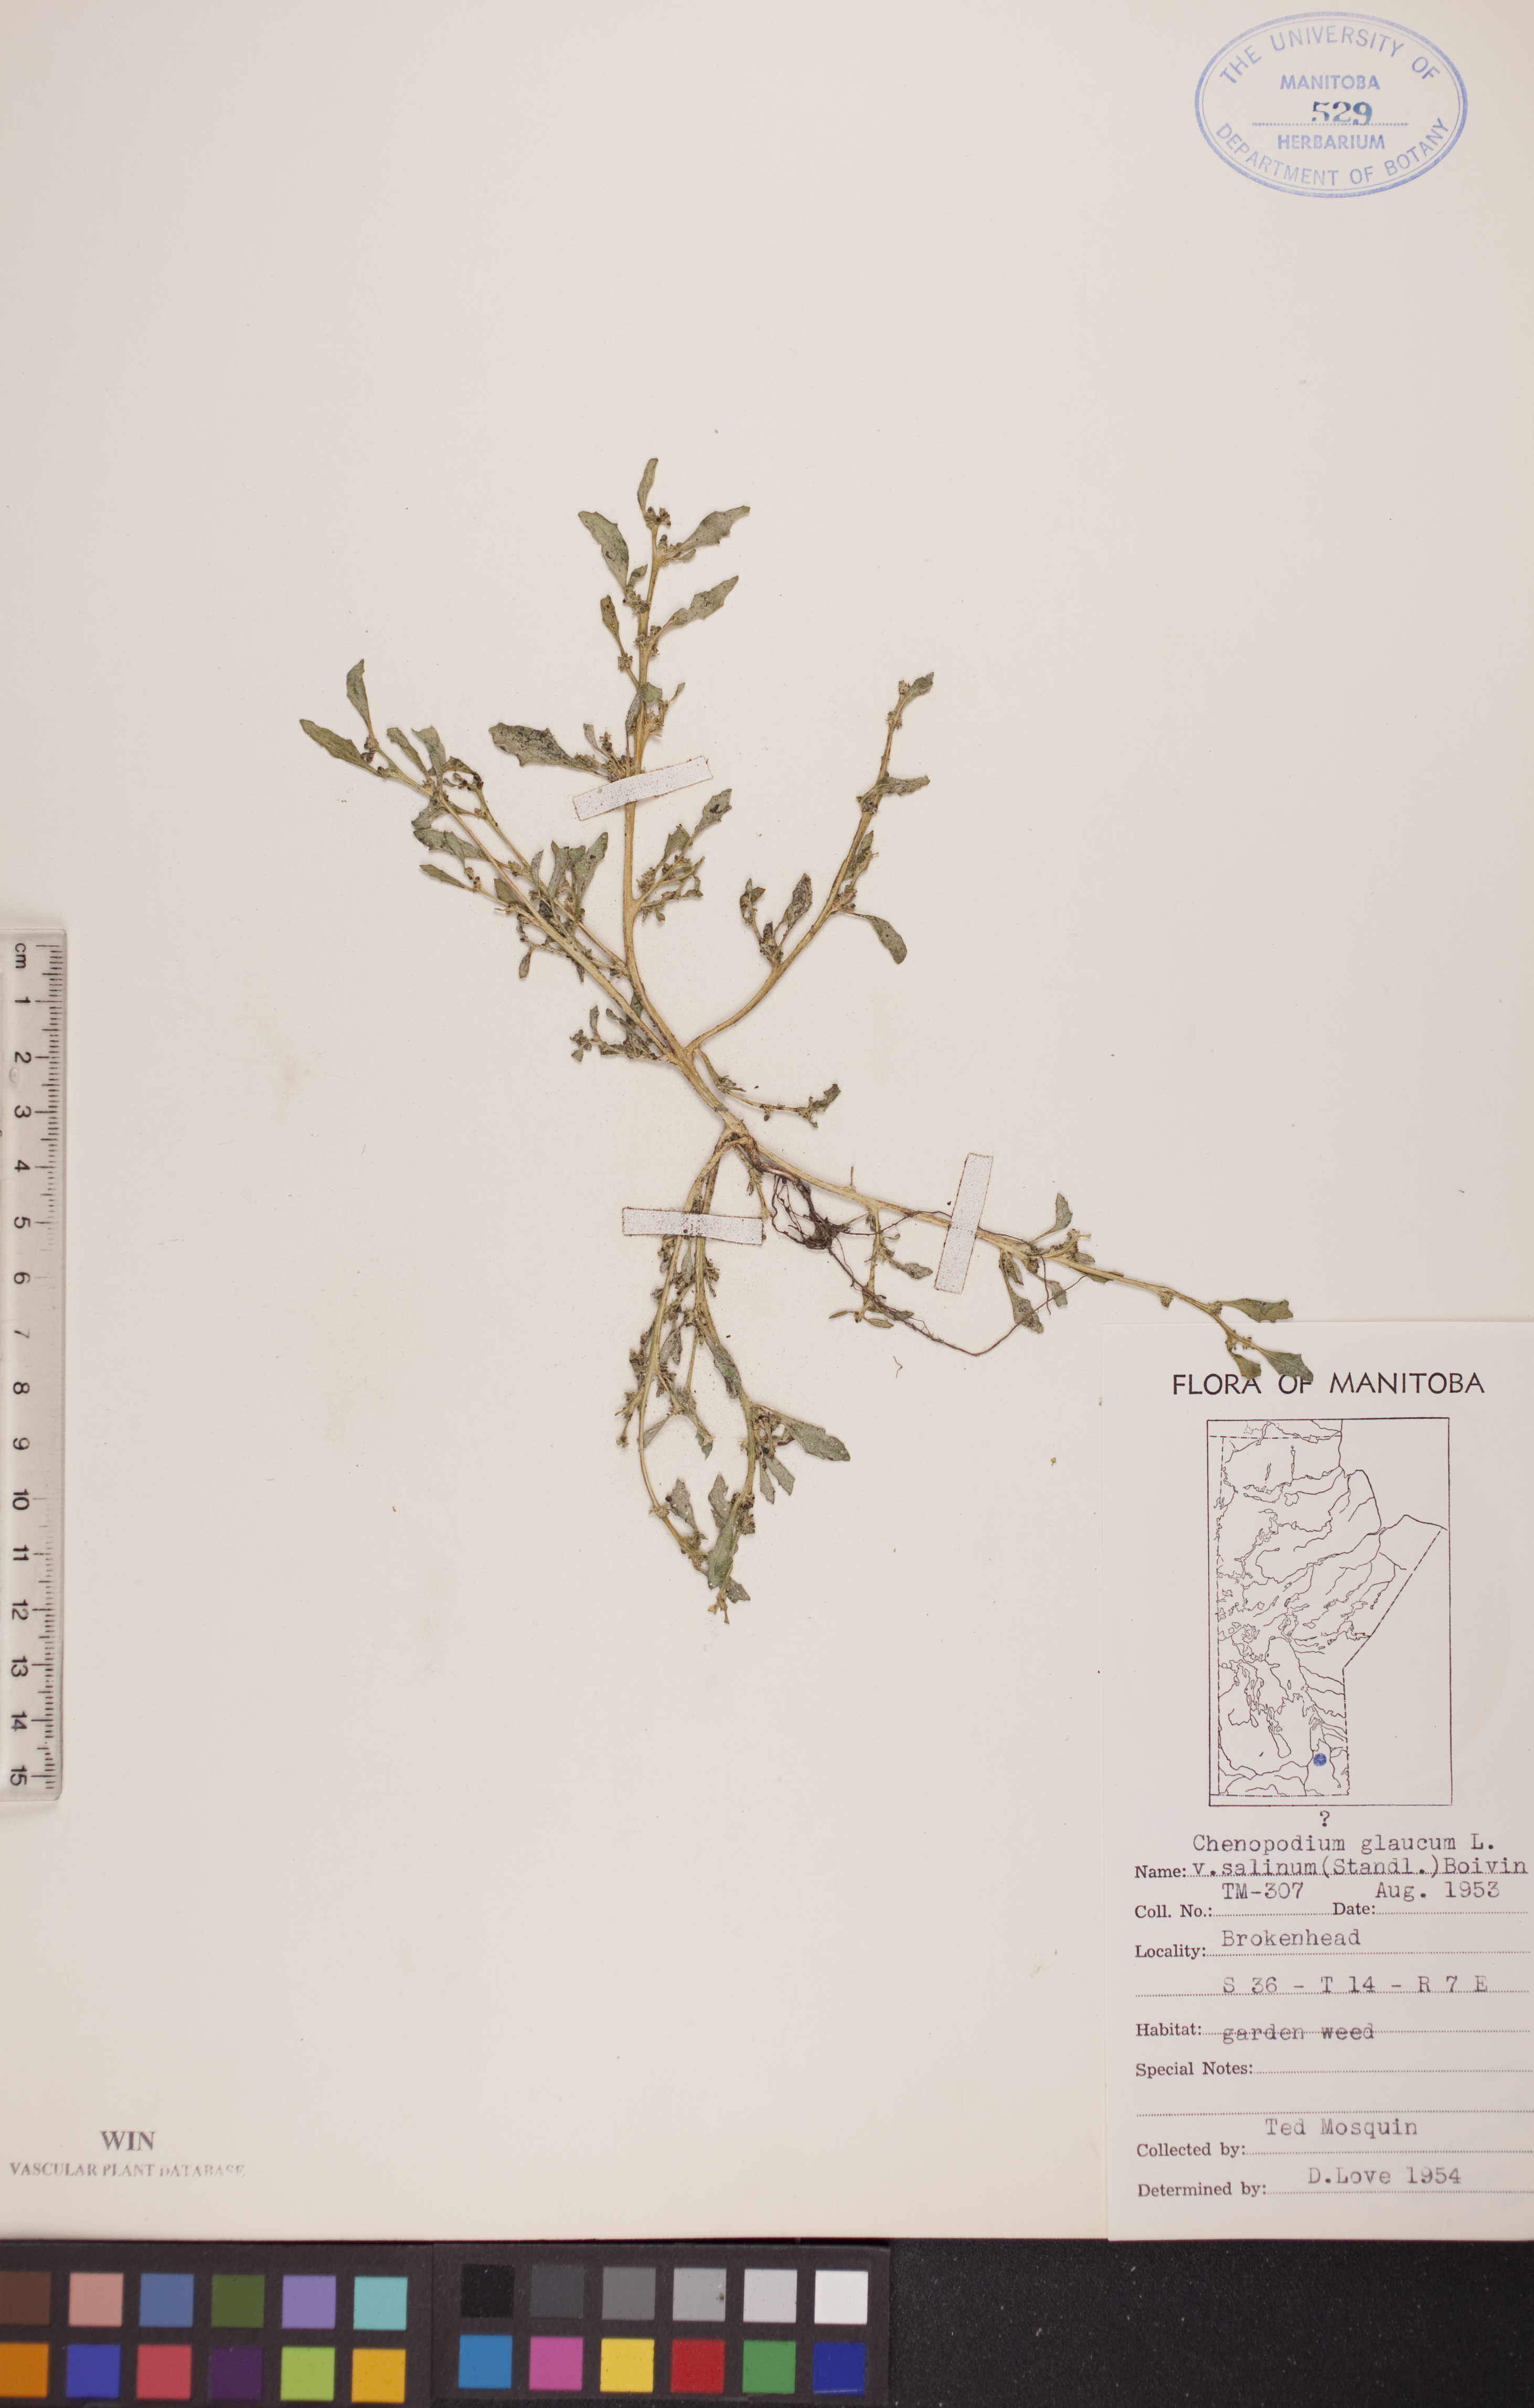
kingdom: Plantae
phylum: Tracheophyta
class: Magnoliopsida
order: Caryophyllales
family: Amaranthaceae
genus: Oxybasis
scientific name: Oxybasis salina
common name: Rocky mountain goosefoot
